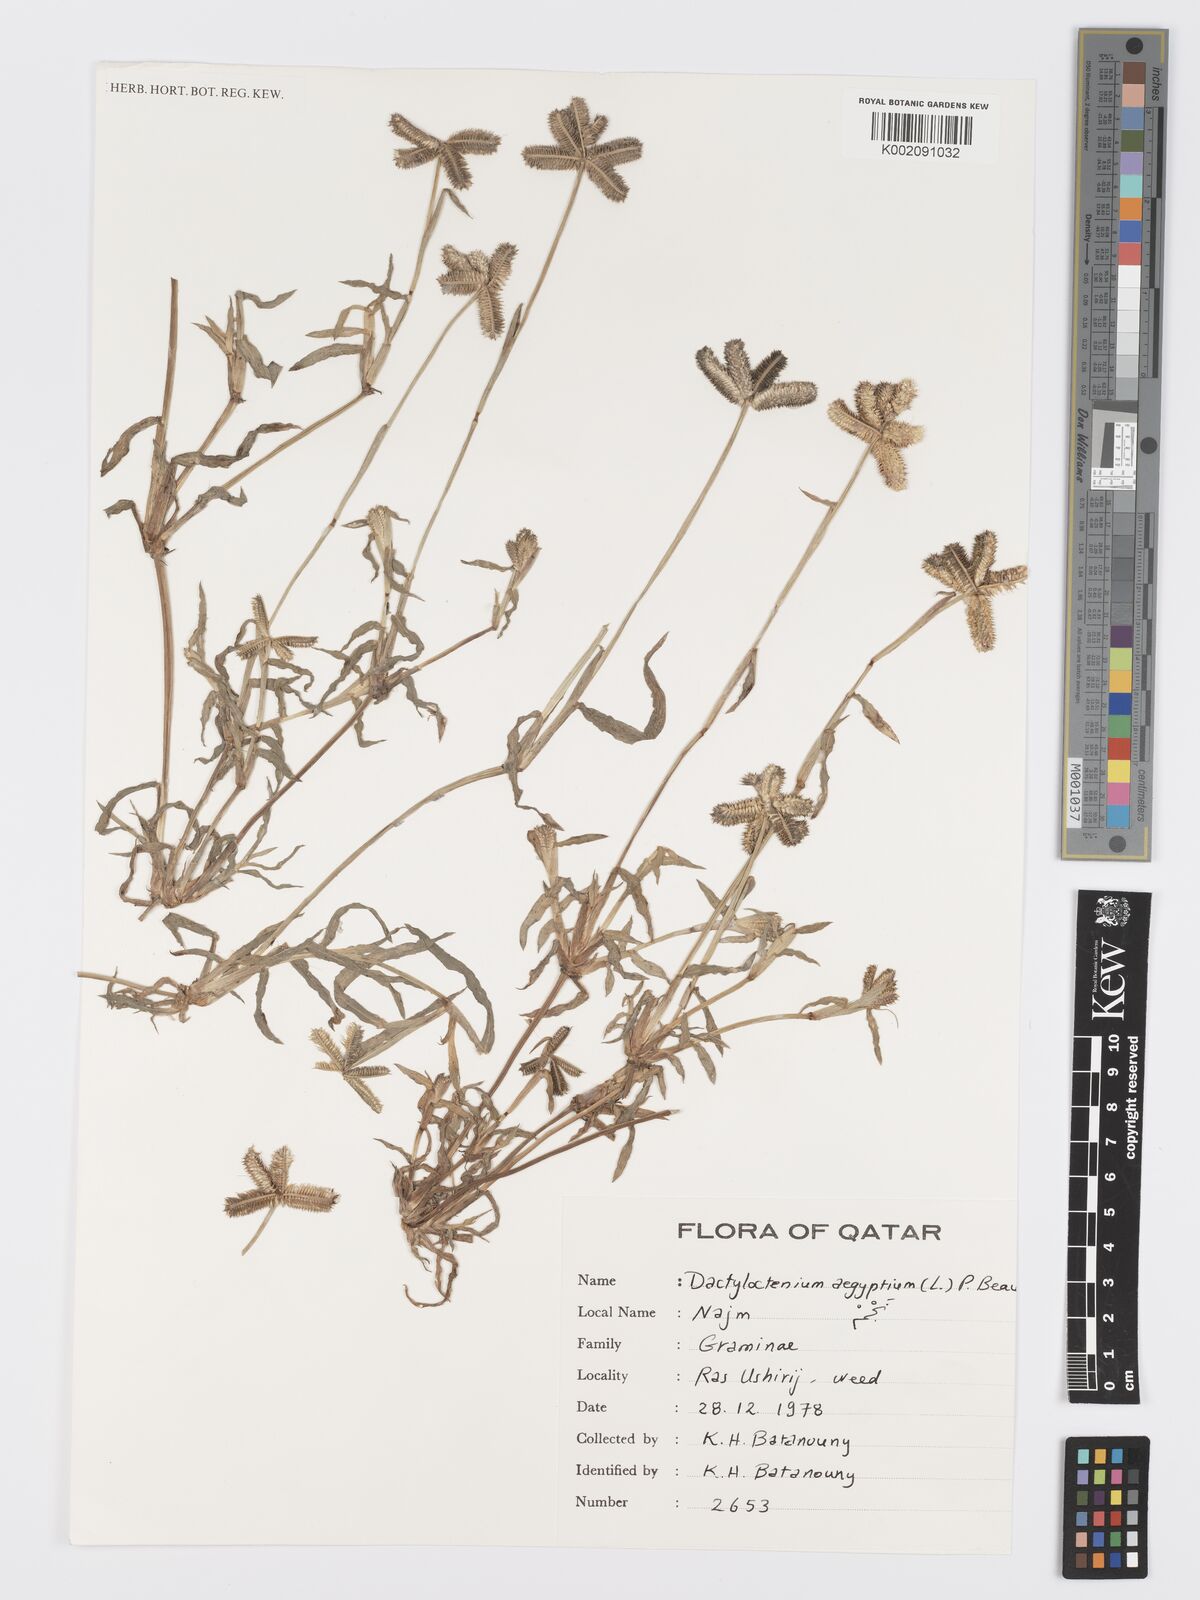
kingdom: Plantae
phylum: Tracheophyta
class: Liliopsida
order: Poales
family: Poaceae
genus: Dactyloctenium
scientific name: Dactyloctenium aegyptium
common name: Egyptian grass
